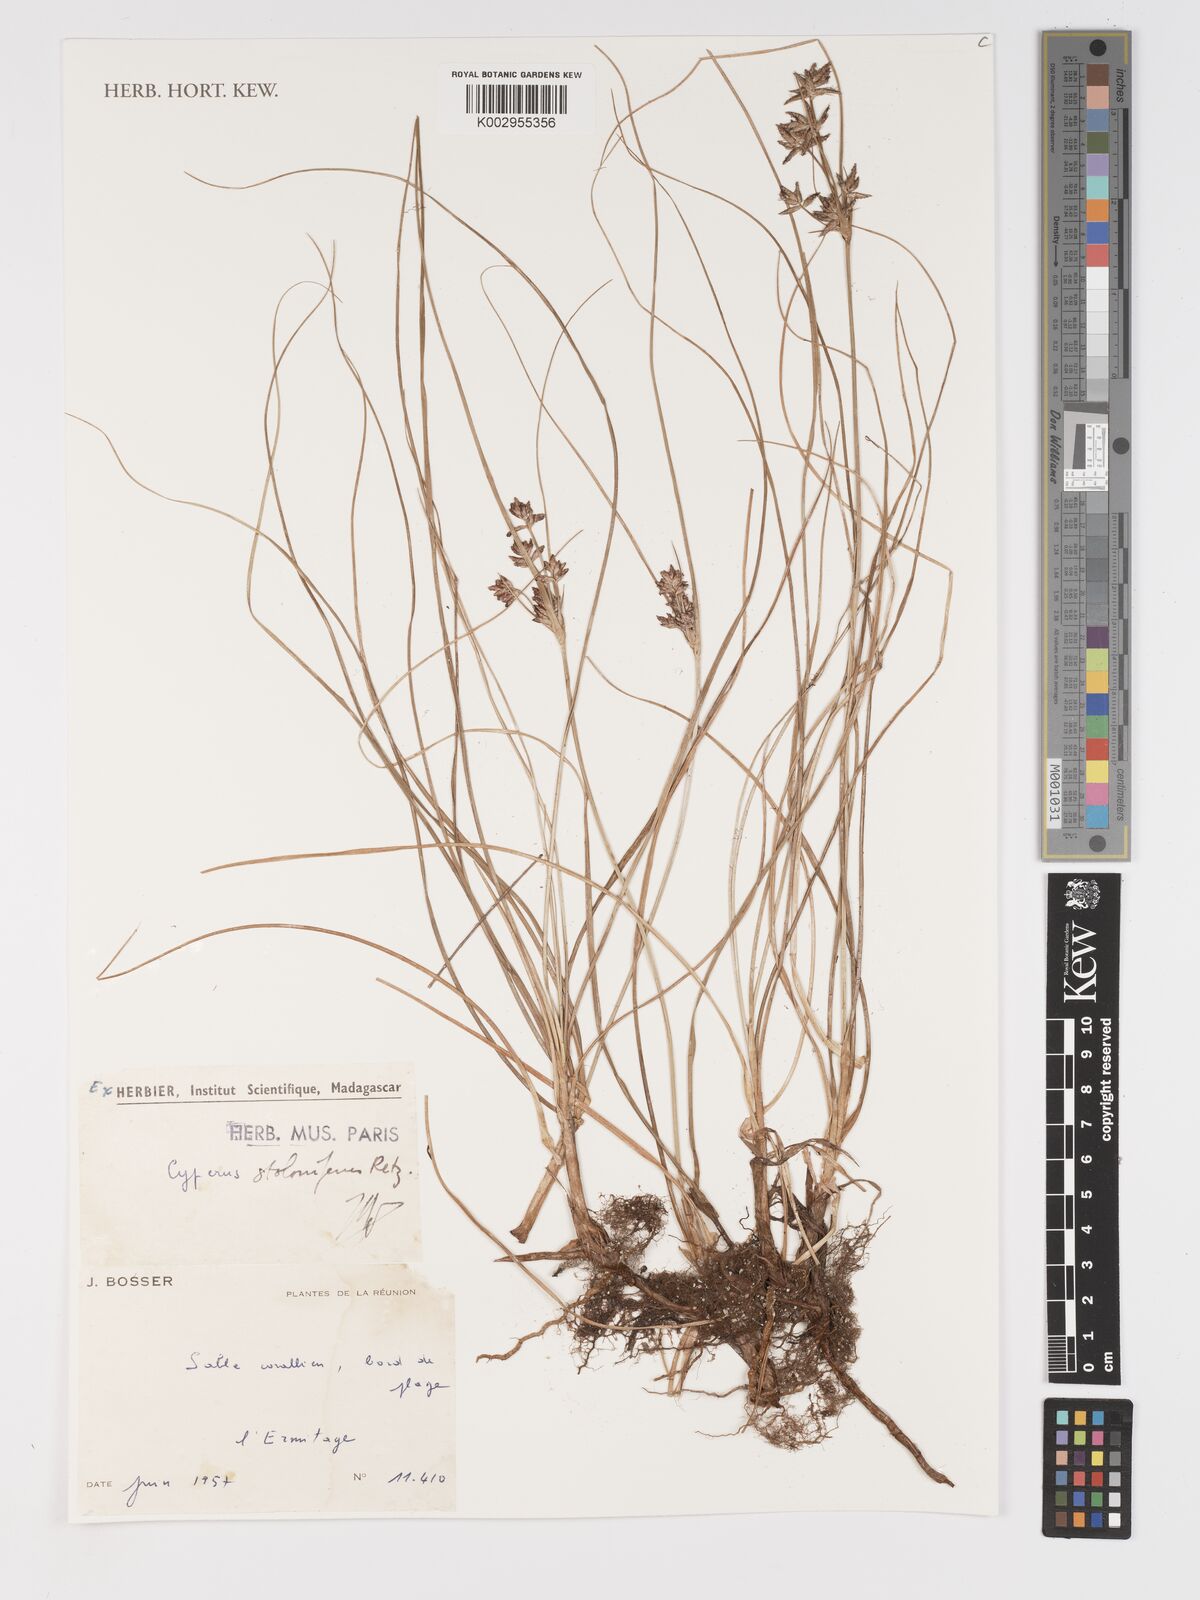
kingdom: Plantae
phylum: Tracheophyta
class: Liliopsida
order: Poales
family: Cyperaceae
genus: Cyperus
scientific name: Cyperus bulbosus
